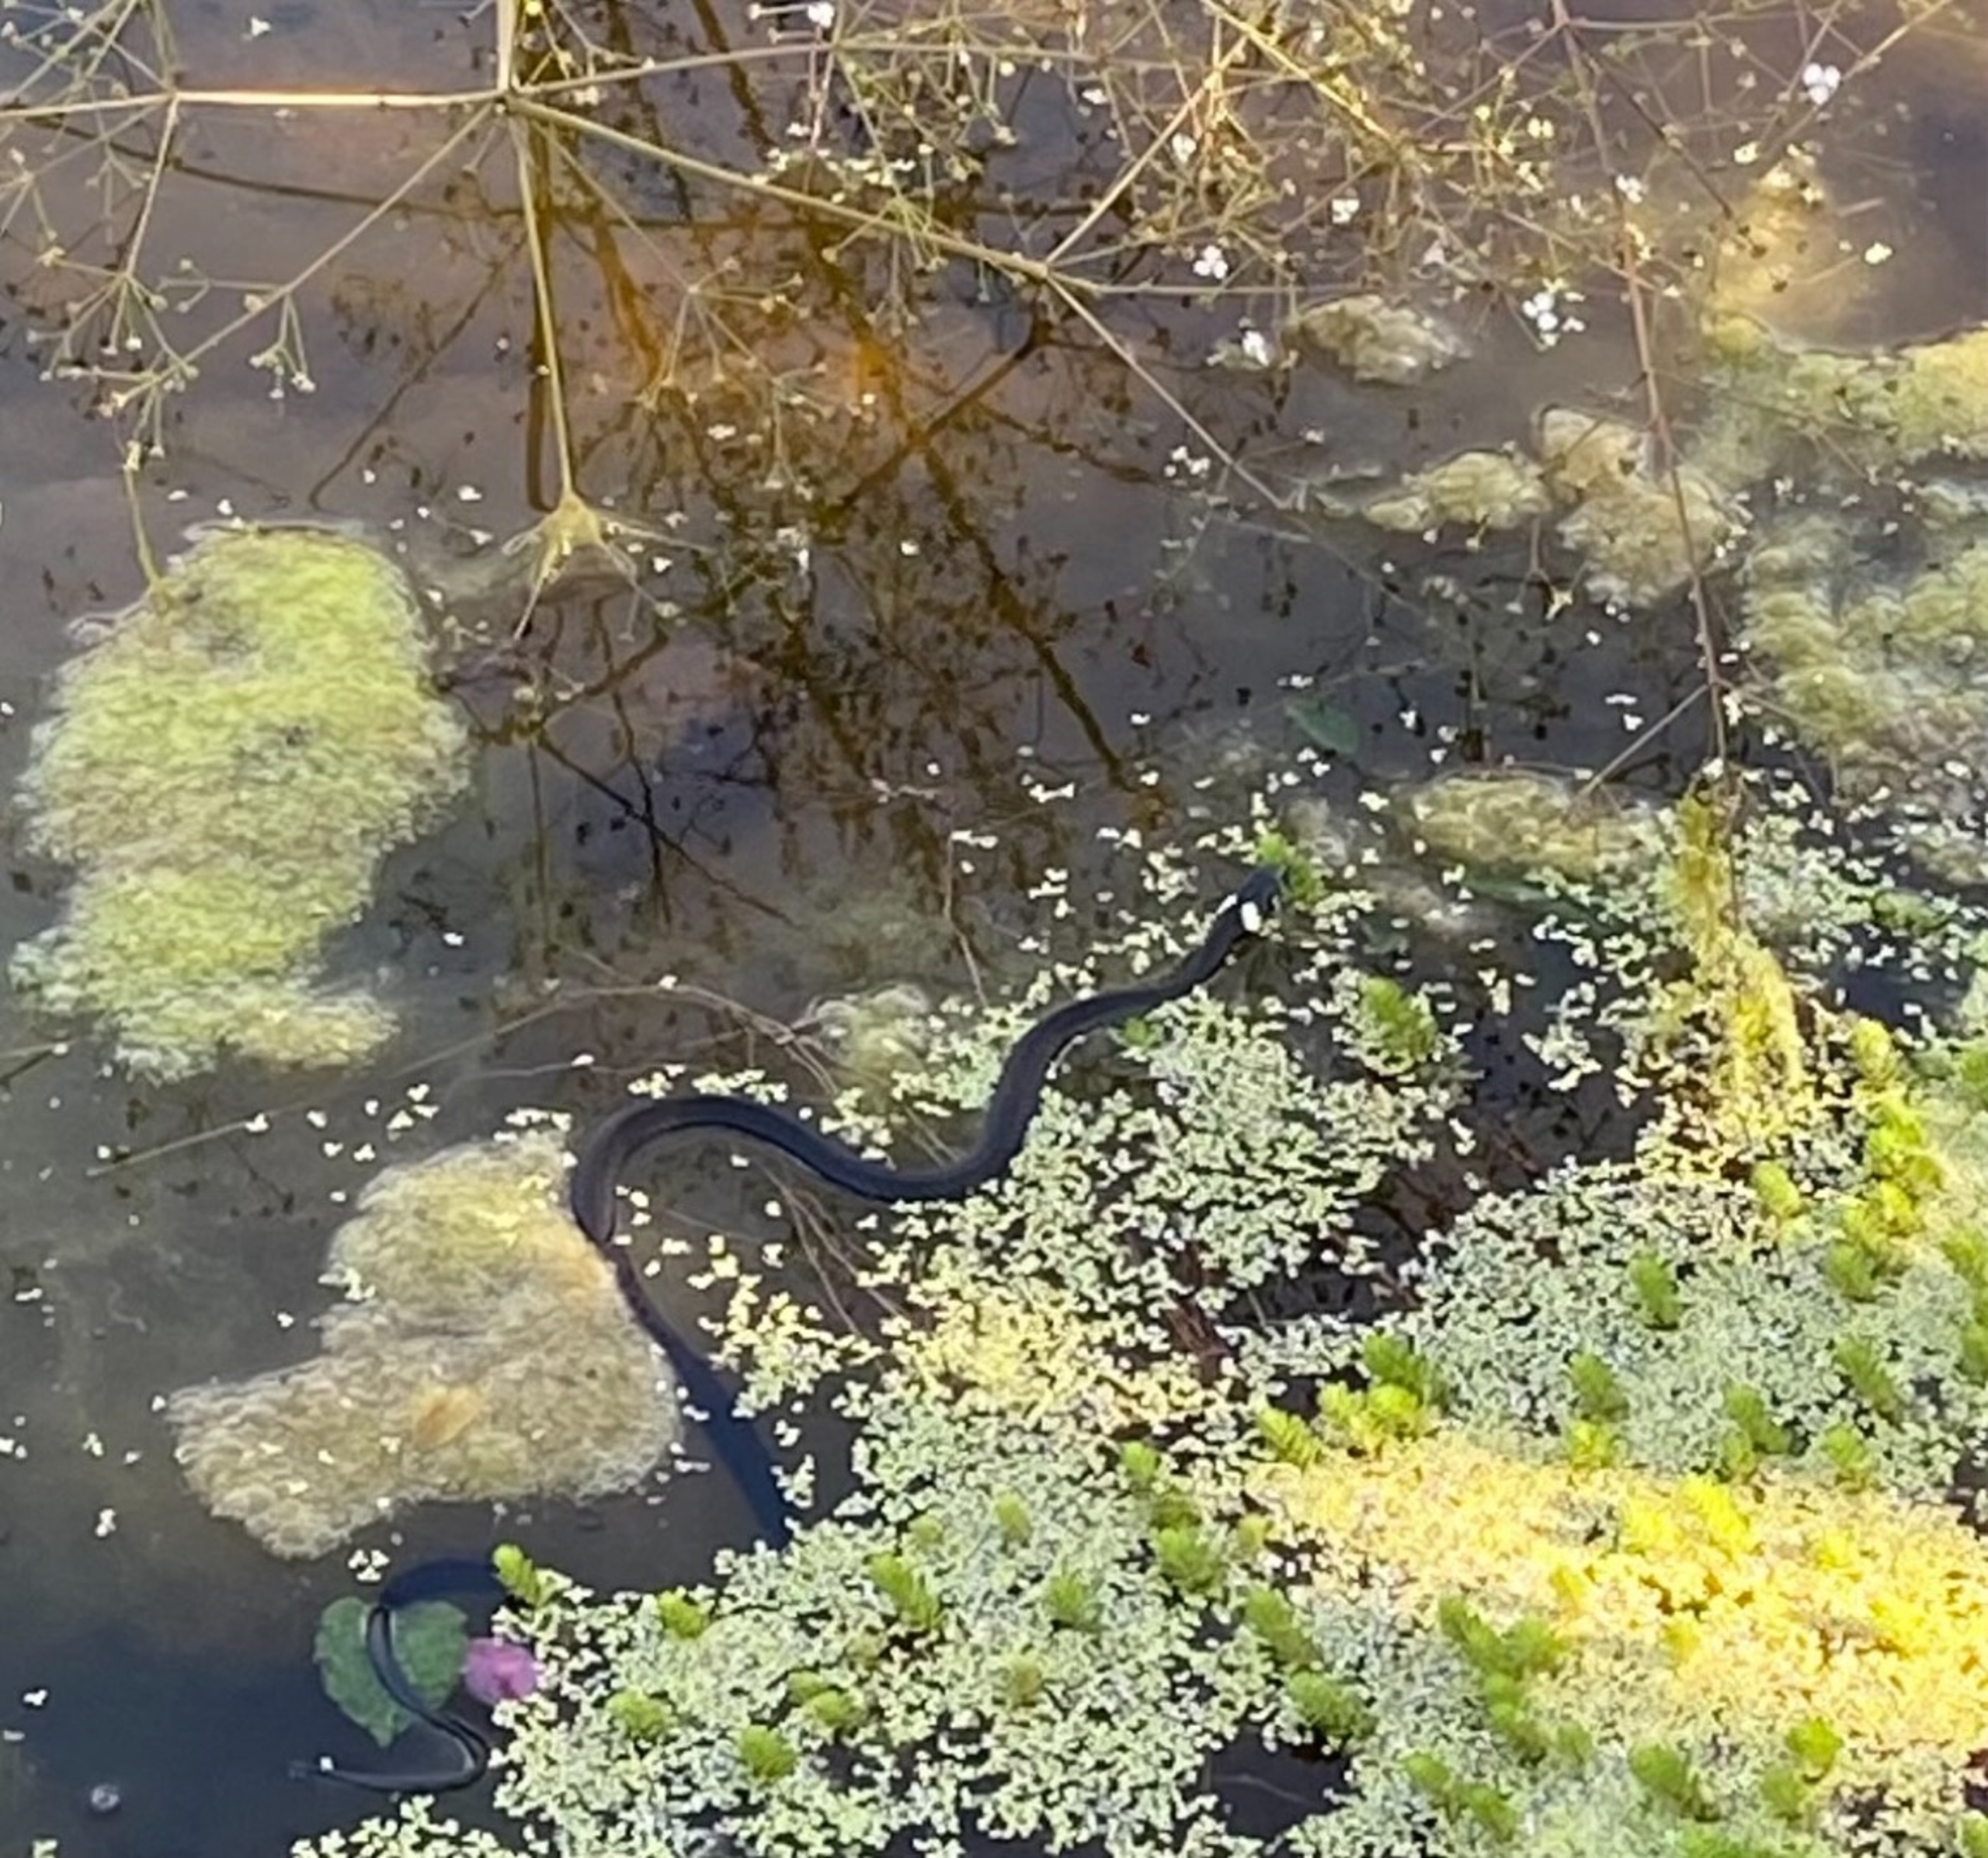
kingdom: Animalia
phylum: Chordata
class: Squamata
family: Colubridae
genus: Natrix
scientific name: Natrix natrix
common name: Snog
